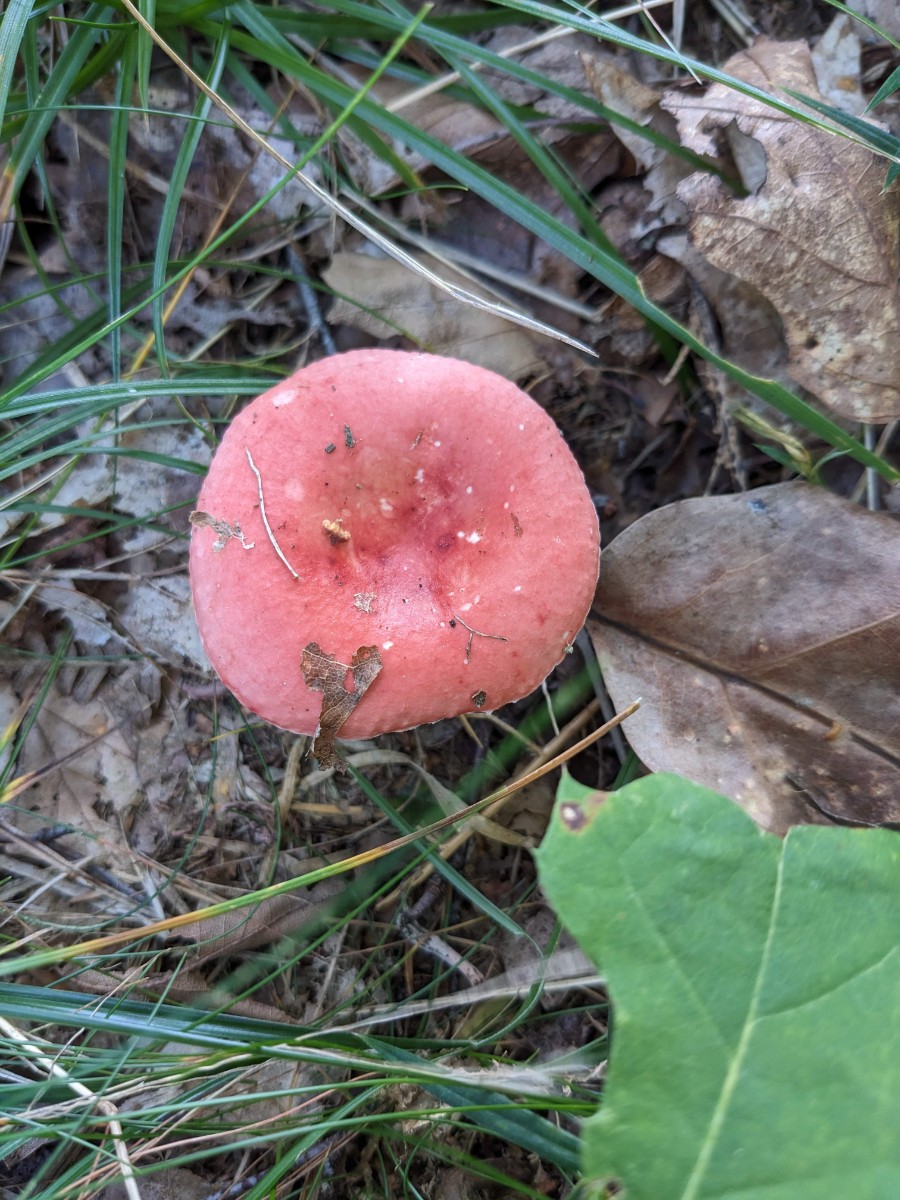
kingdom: Fungi
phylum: Basidiomycota
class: Agaricomycetes
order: Russulales
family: Russulaceae
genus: Russula
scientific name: Russula silvestris
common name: mellemstor gift-skørhat
